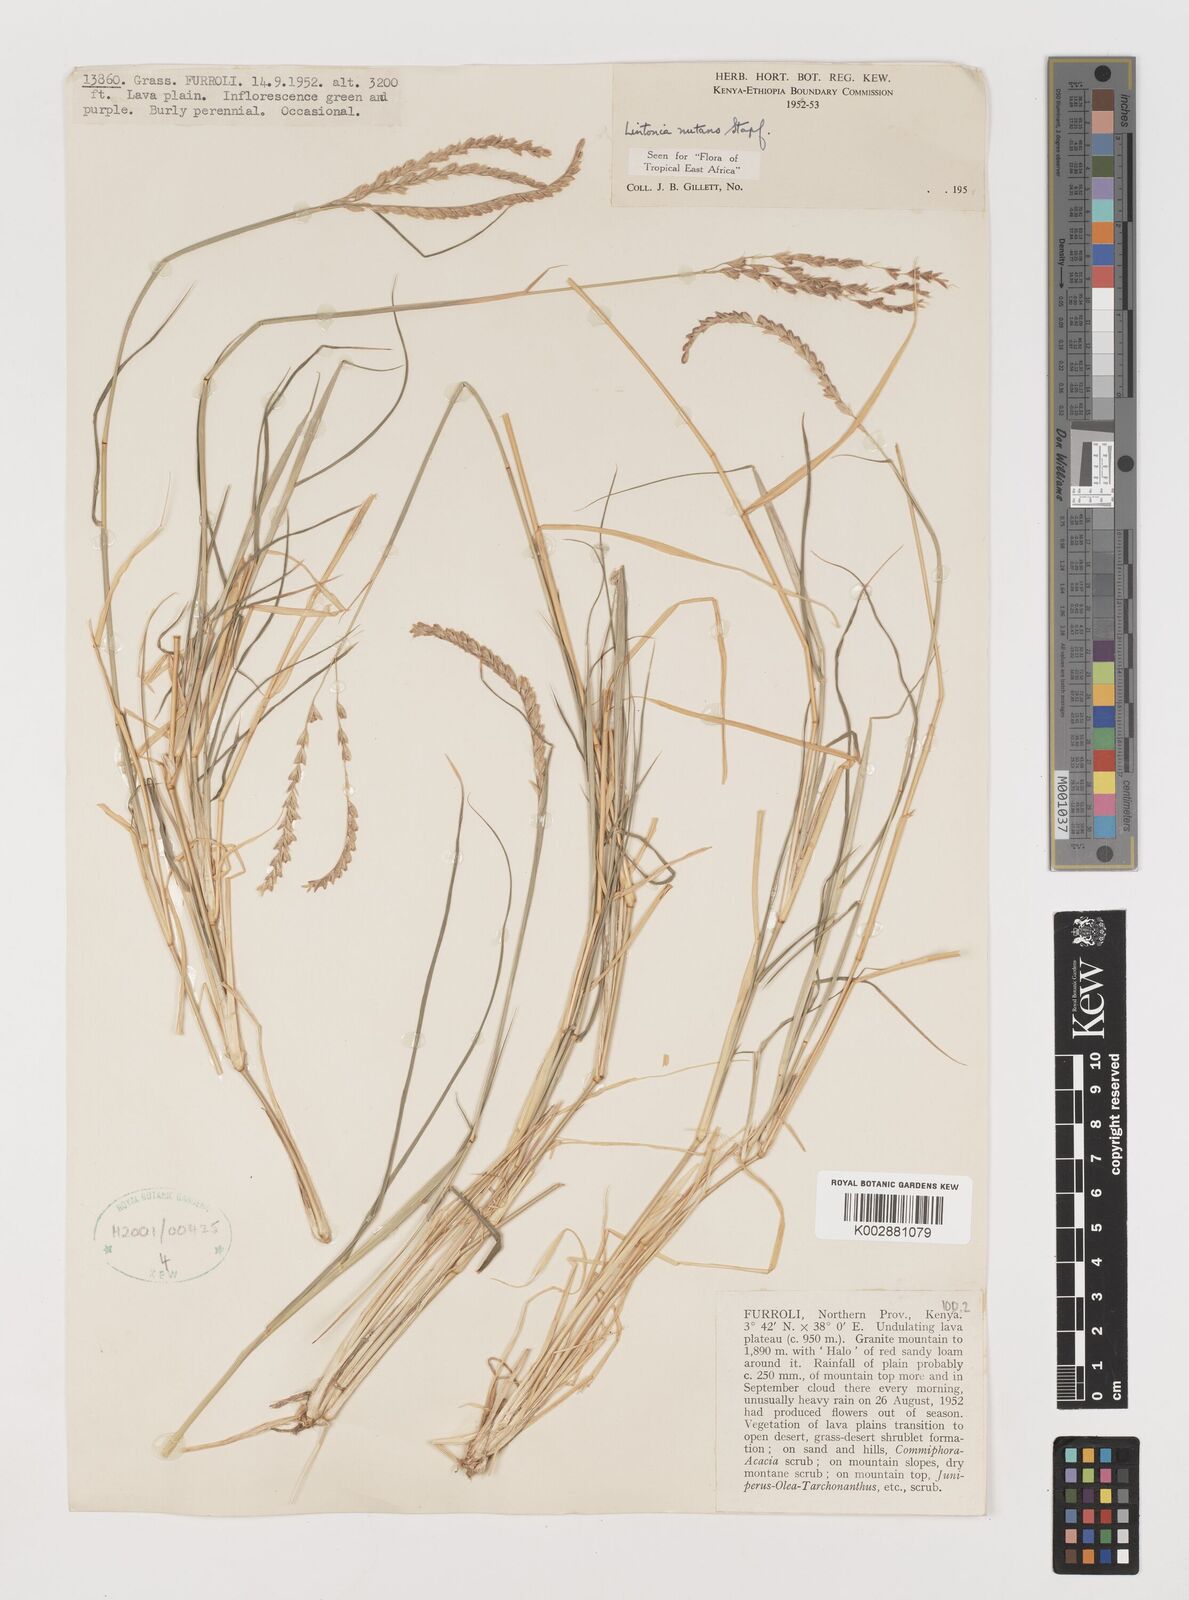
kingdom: Plantae
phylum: Tracheophyta
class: Liliopsida
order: Poales
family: Poaceae
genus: Chloris
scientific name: Chloris nutans
